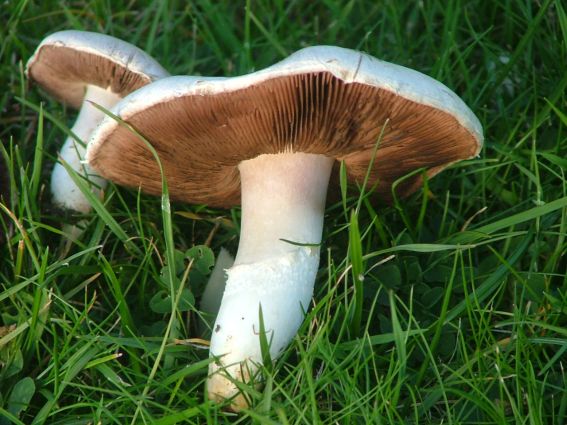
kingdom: Fungi
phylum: Basidiomycota
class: Agaricomycetes
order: Agaricales
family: Agaricaceae
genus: Agaricus
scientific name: Agaricus campestris
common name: mark-champignon
